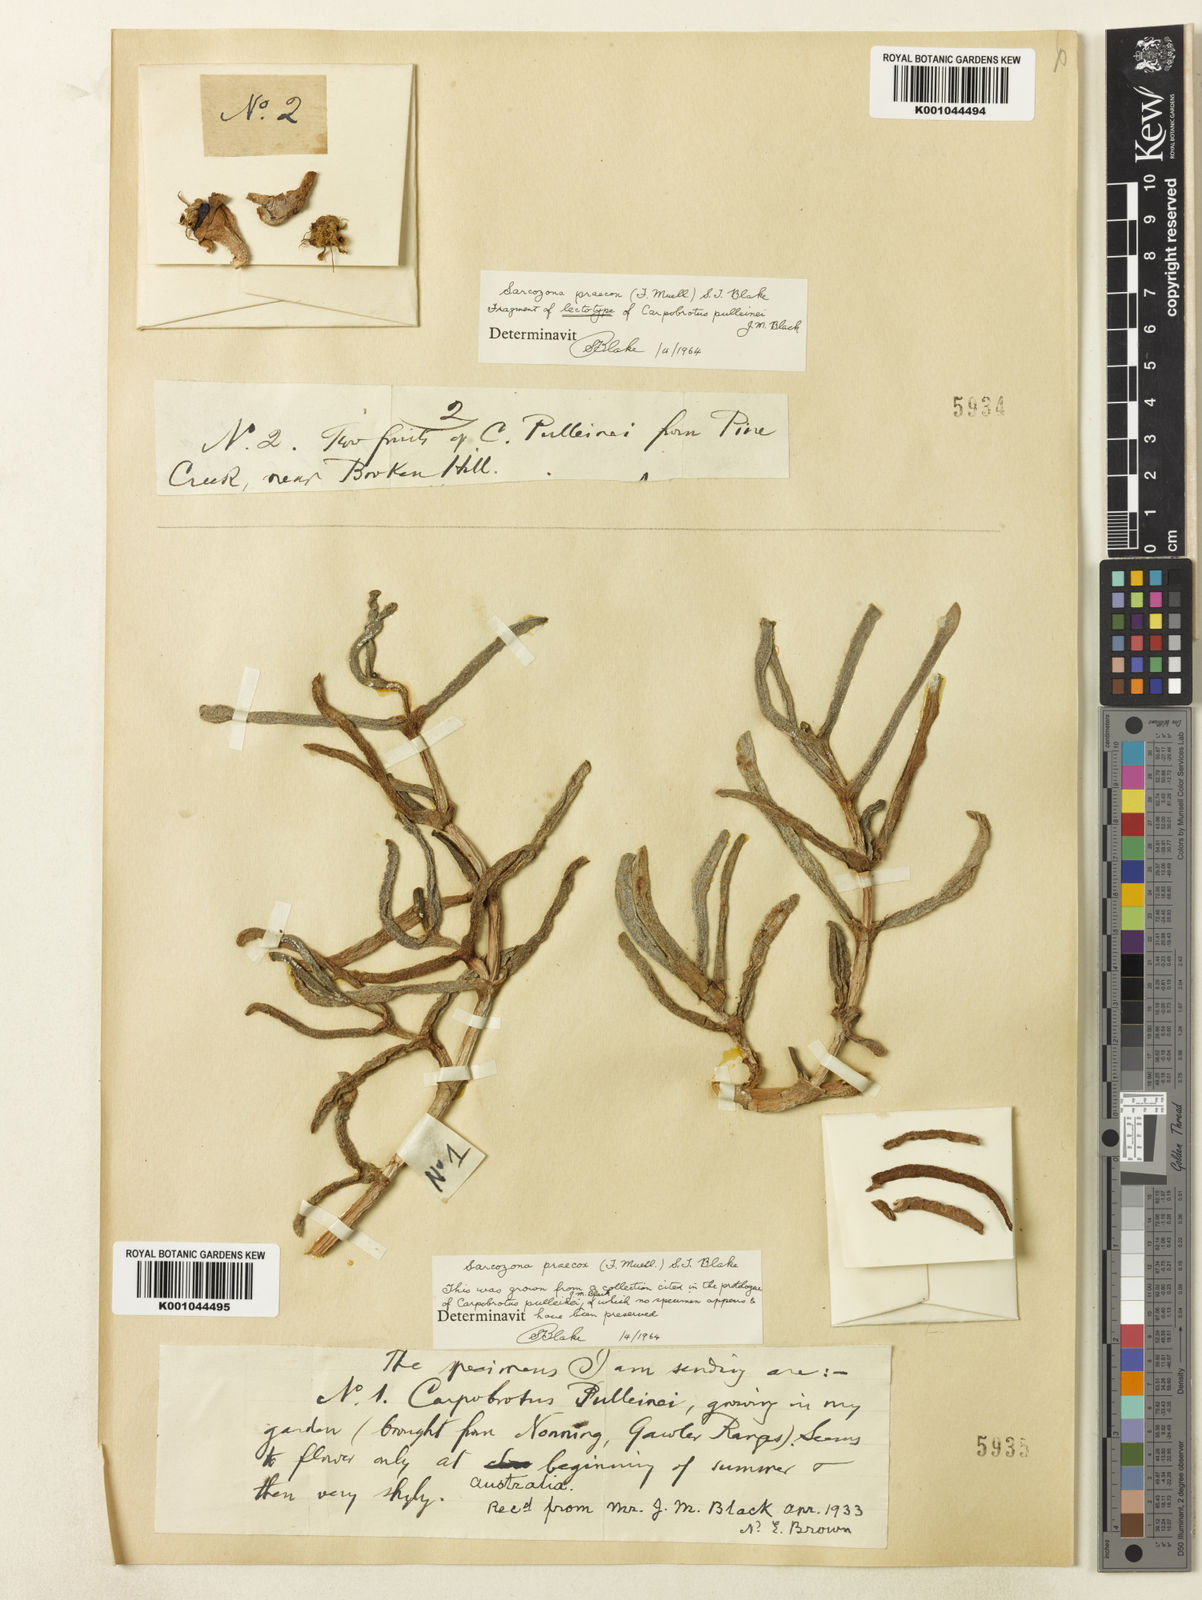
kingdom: Plantae
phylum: Tracheophyta
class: Magnoliopsida
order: Caryophyllales
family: Aizoaceae
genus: Sarcozona
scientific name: Sarcozona praecox
